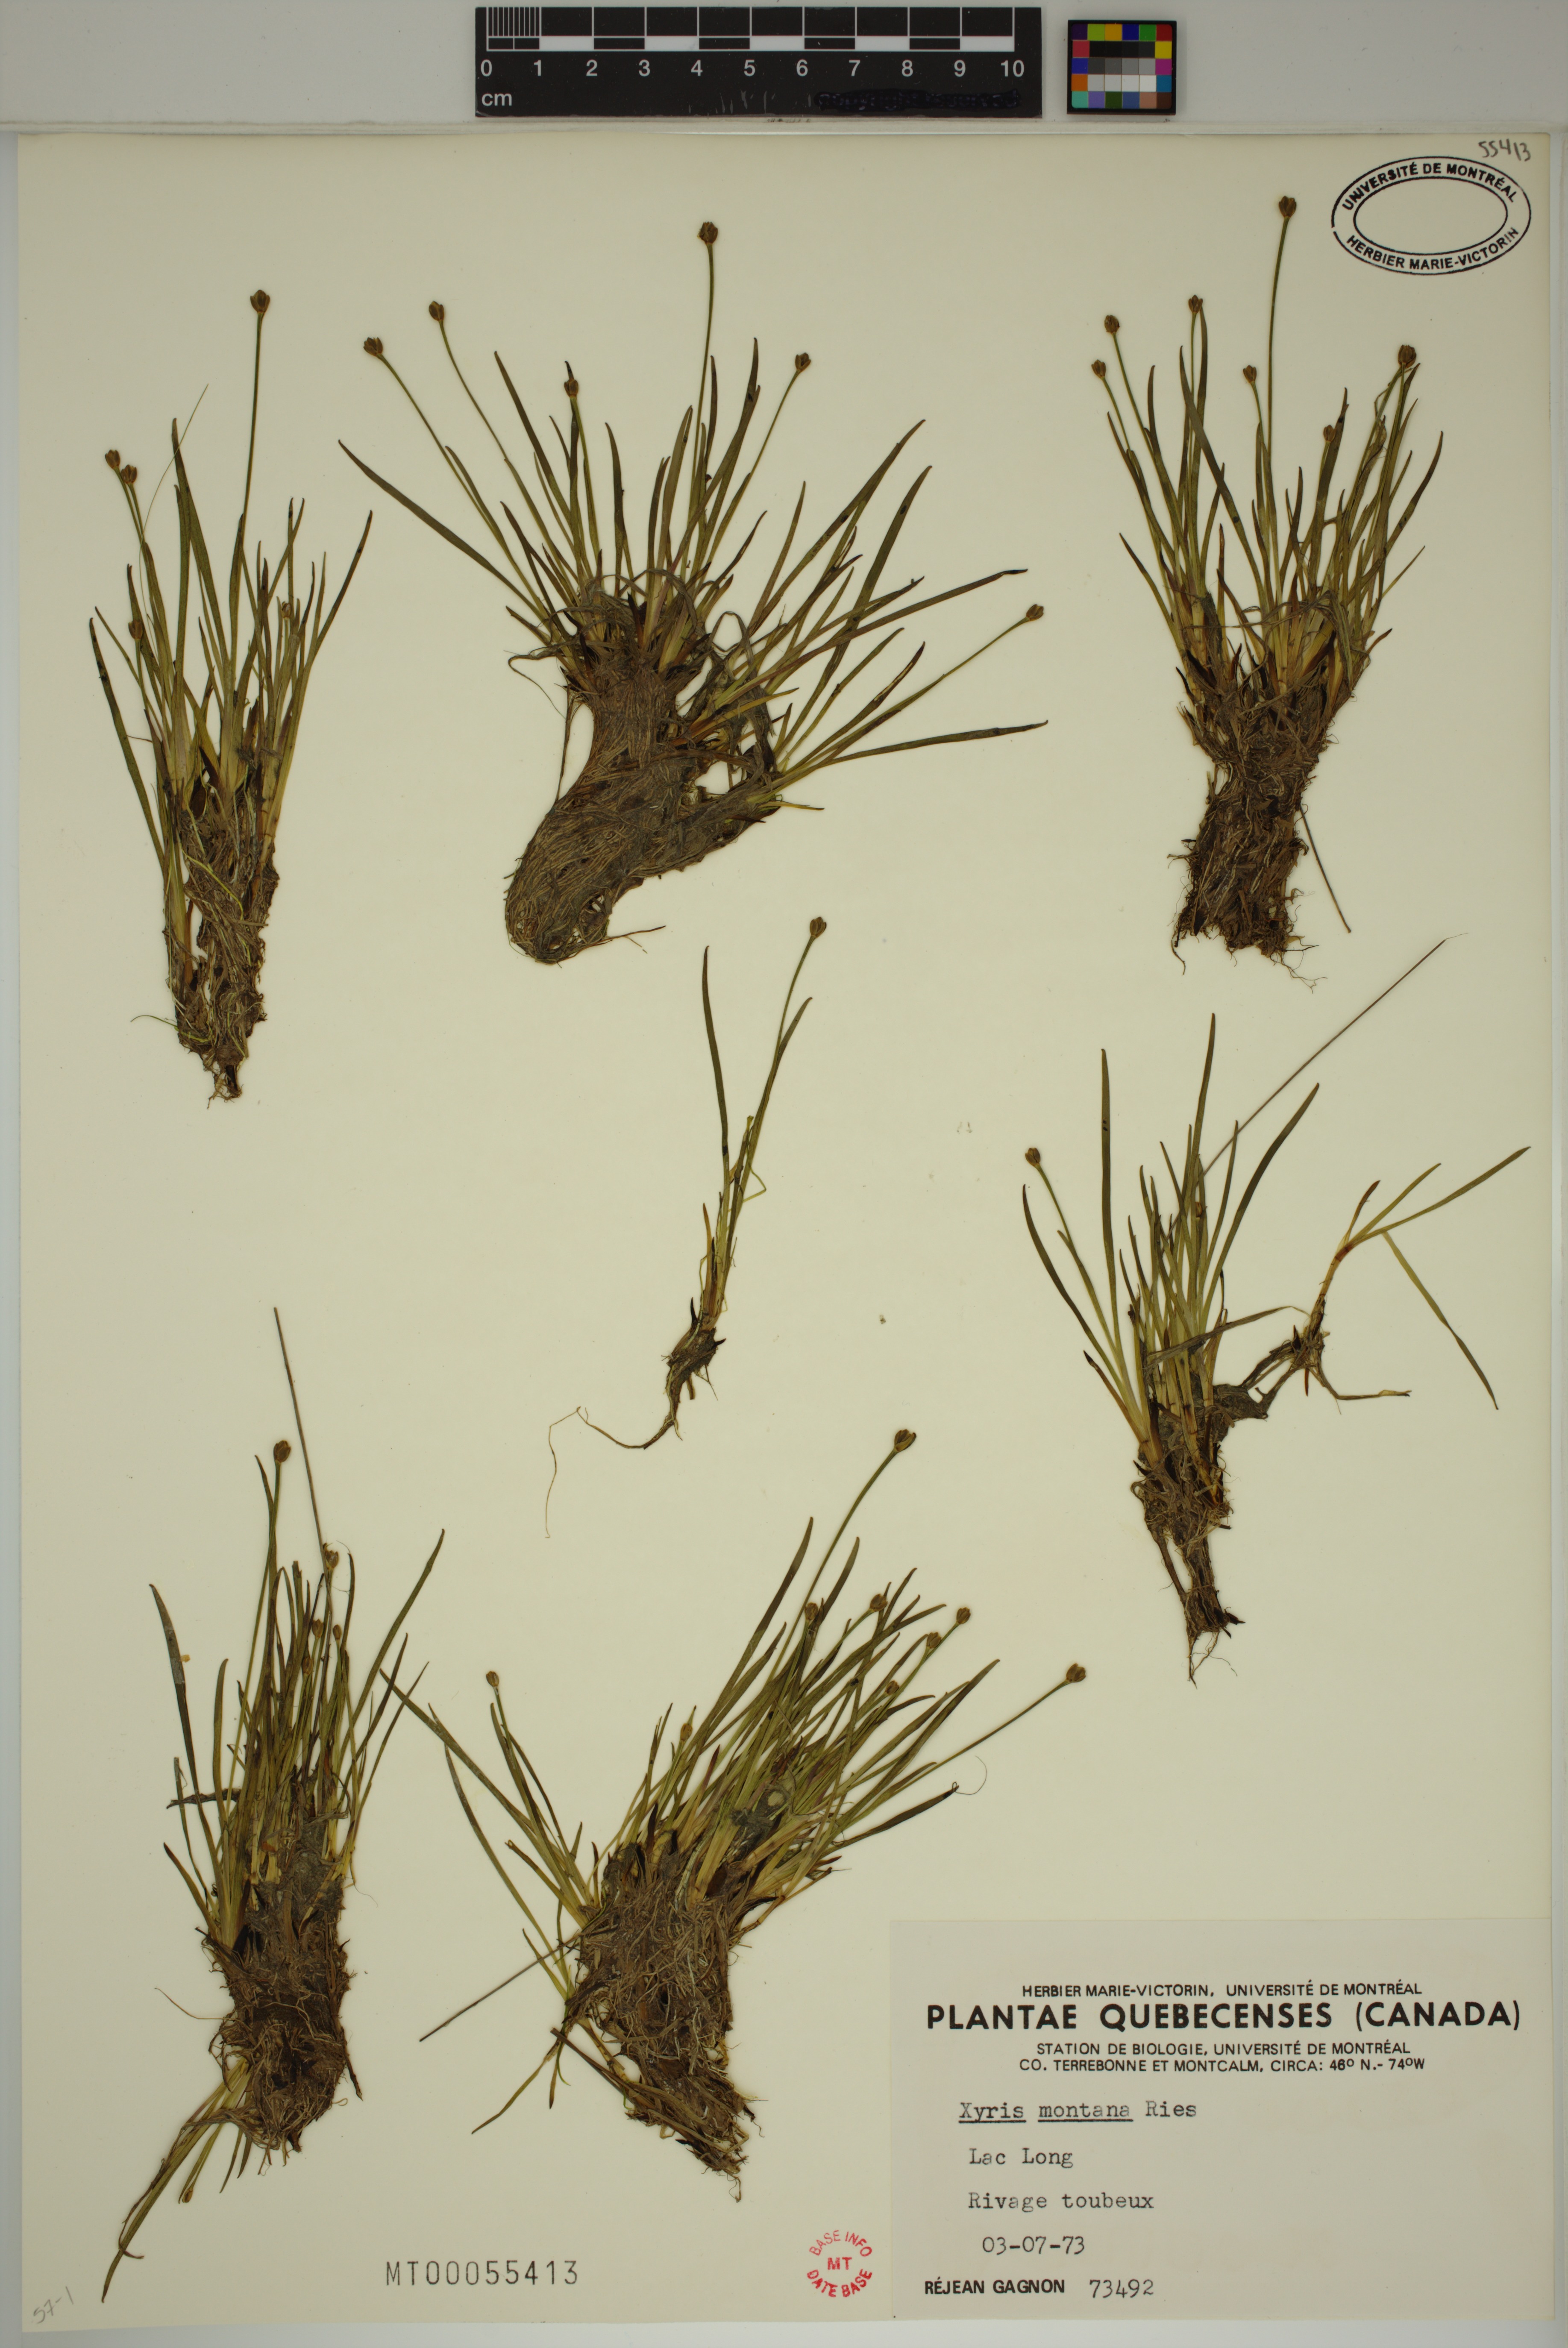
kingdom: Plantae
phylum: Tracheophyta
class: Liliopsida
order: Poales
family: Xyridaceae
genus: Xyris
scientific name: Xyris montana
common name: Northern yellow-eyed-grass
